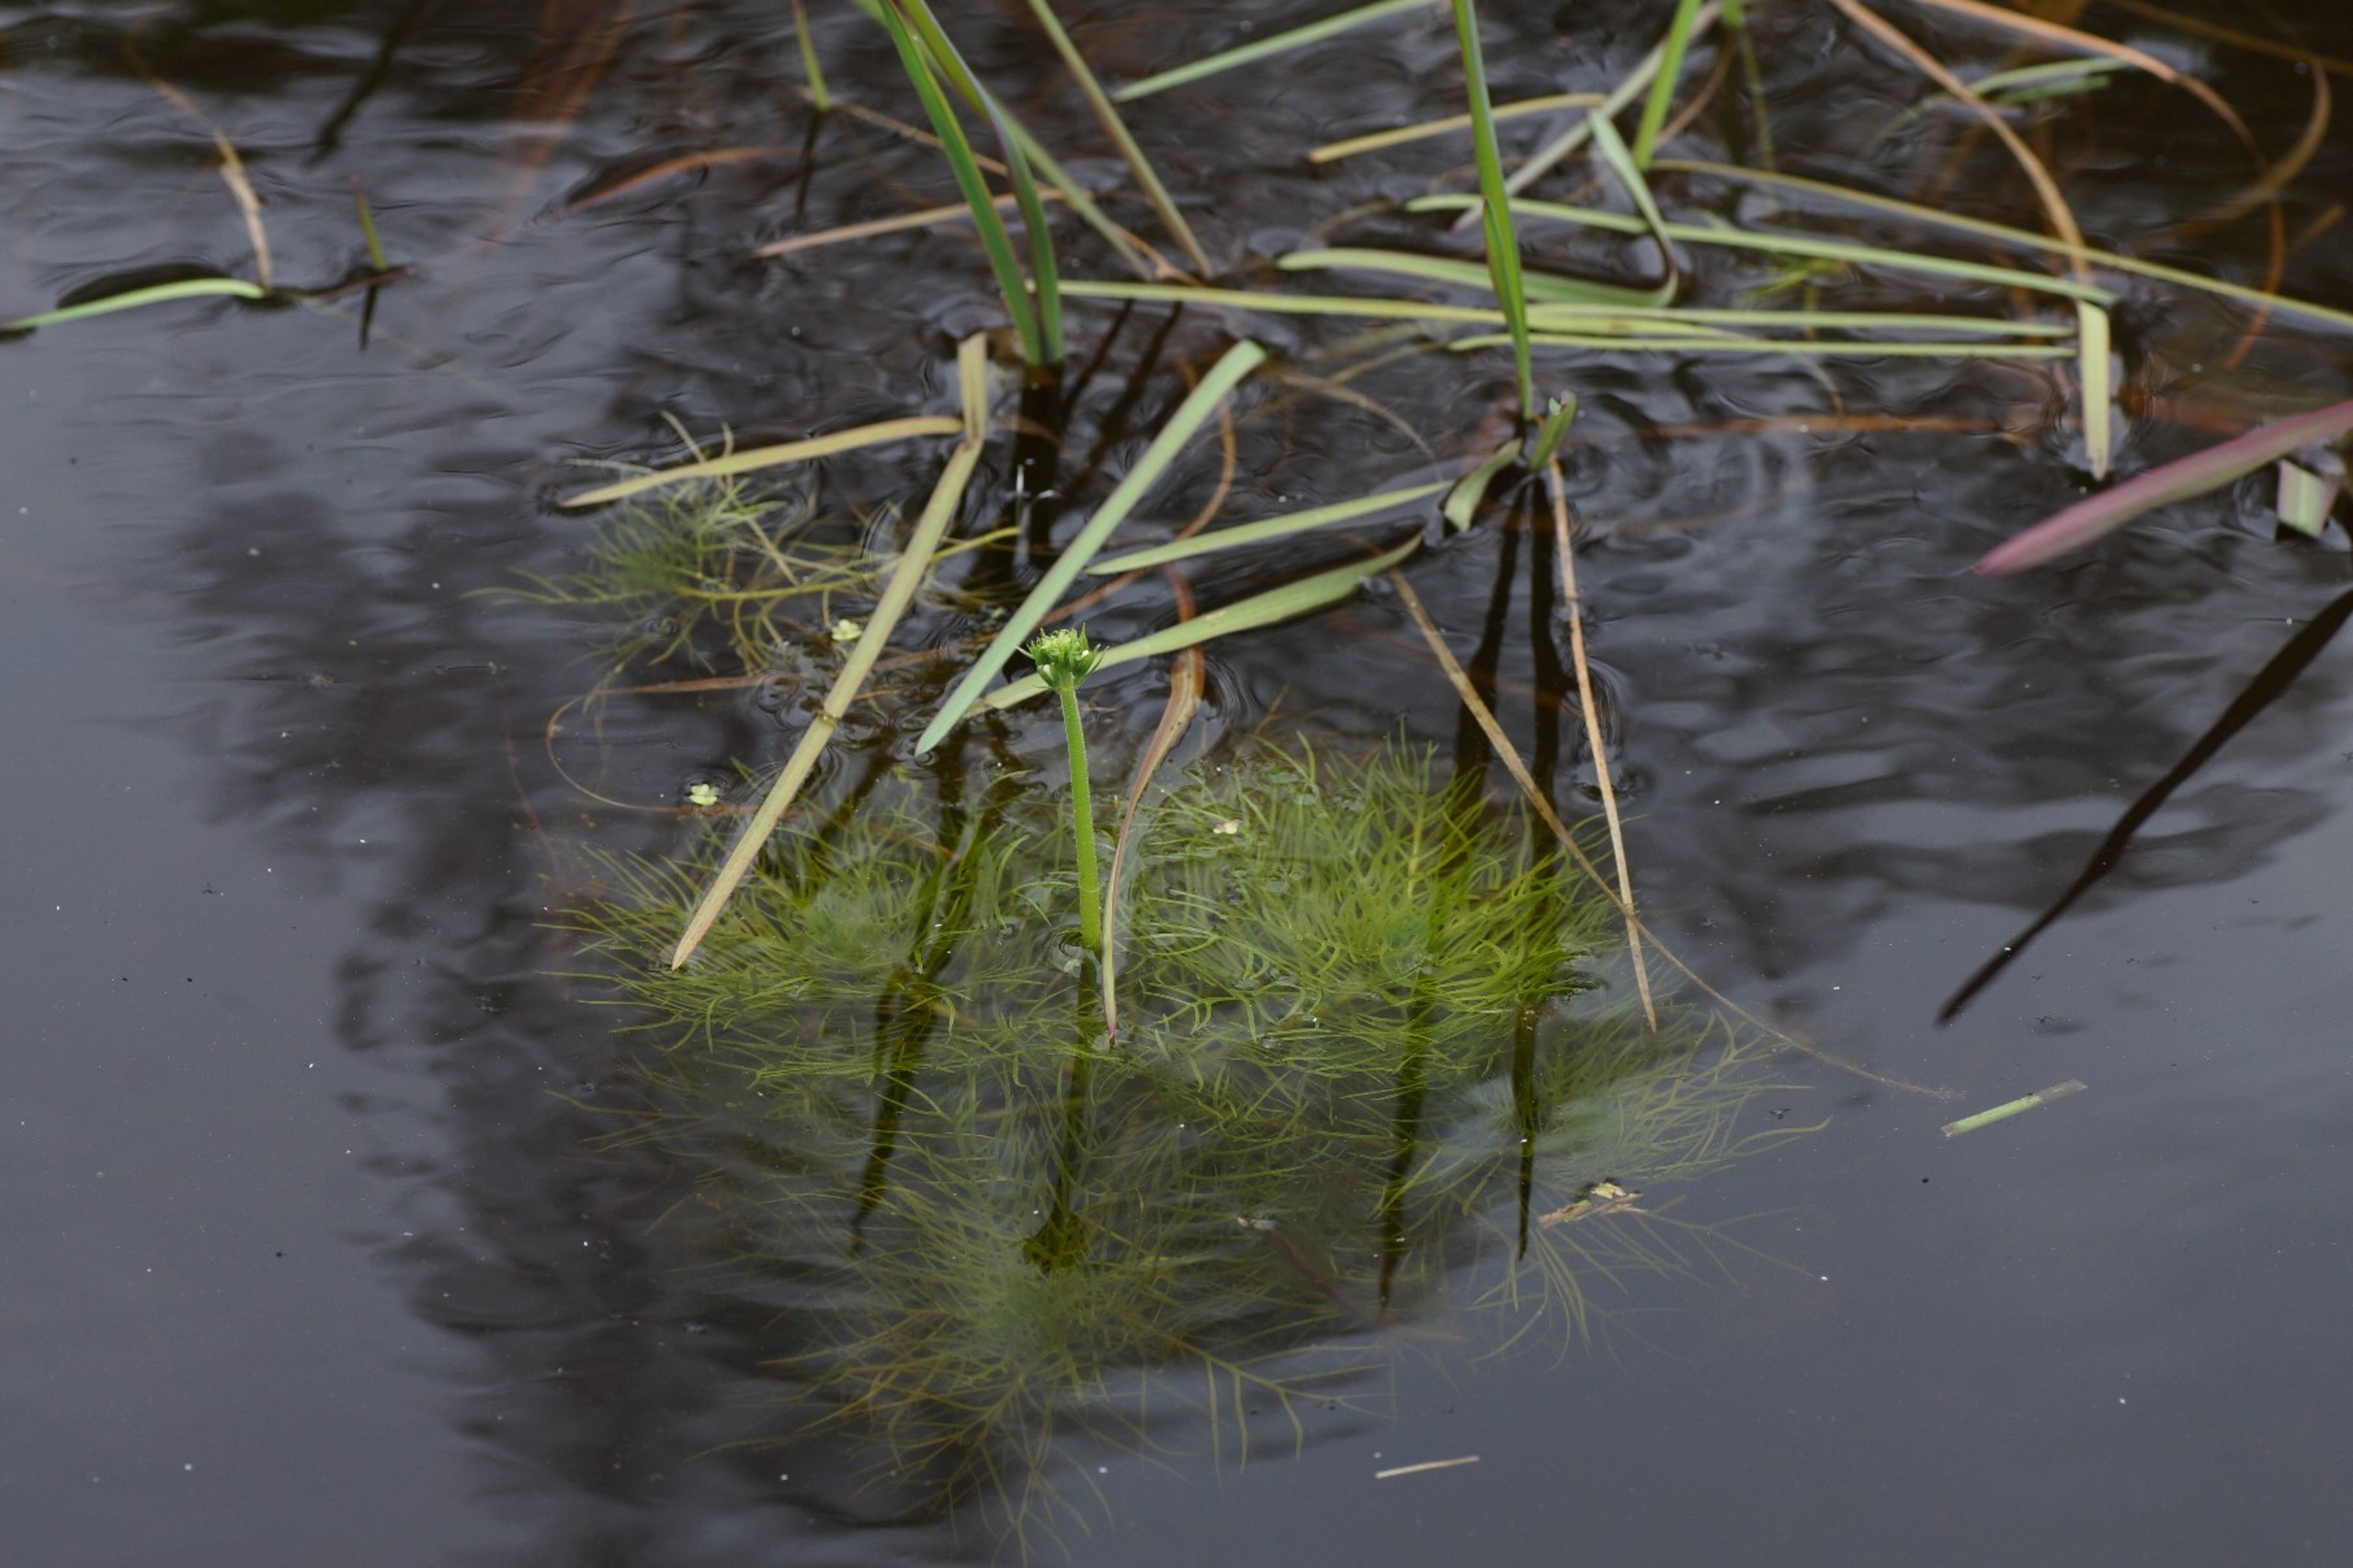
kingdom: Plantae
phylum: Tracheophyta
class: Magnoliopsida
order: Ericales
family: Primulaceae
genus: Hottonia
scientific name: Hottonia palustris
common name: Vandrøllike
